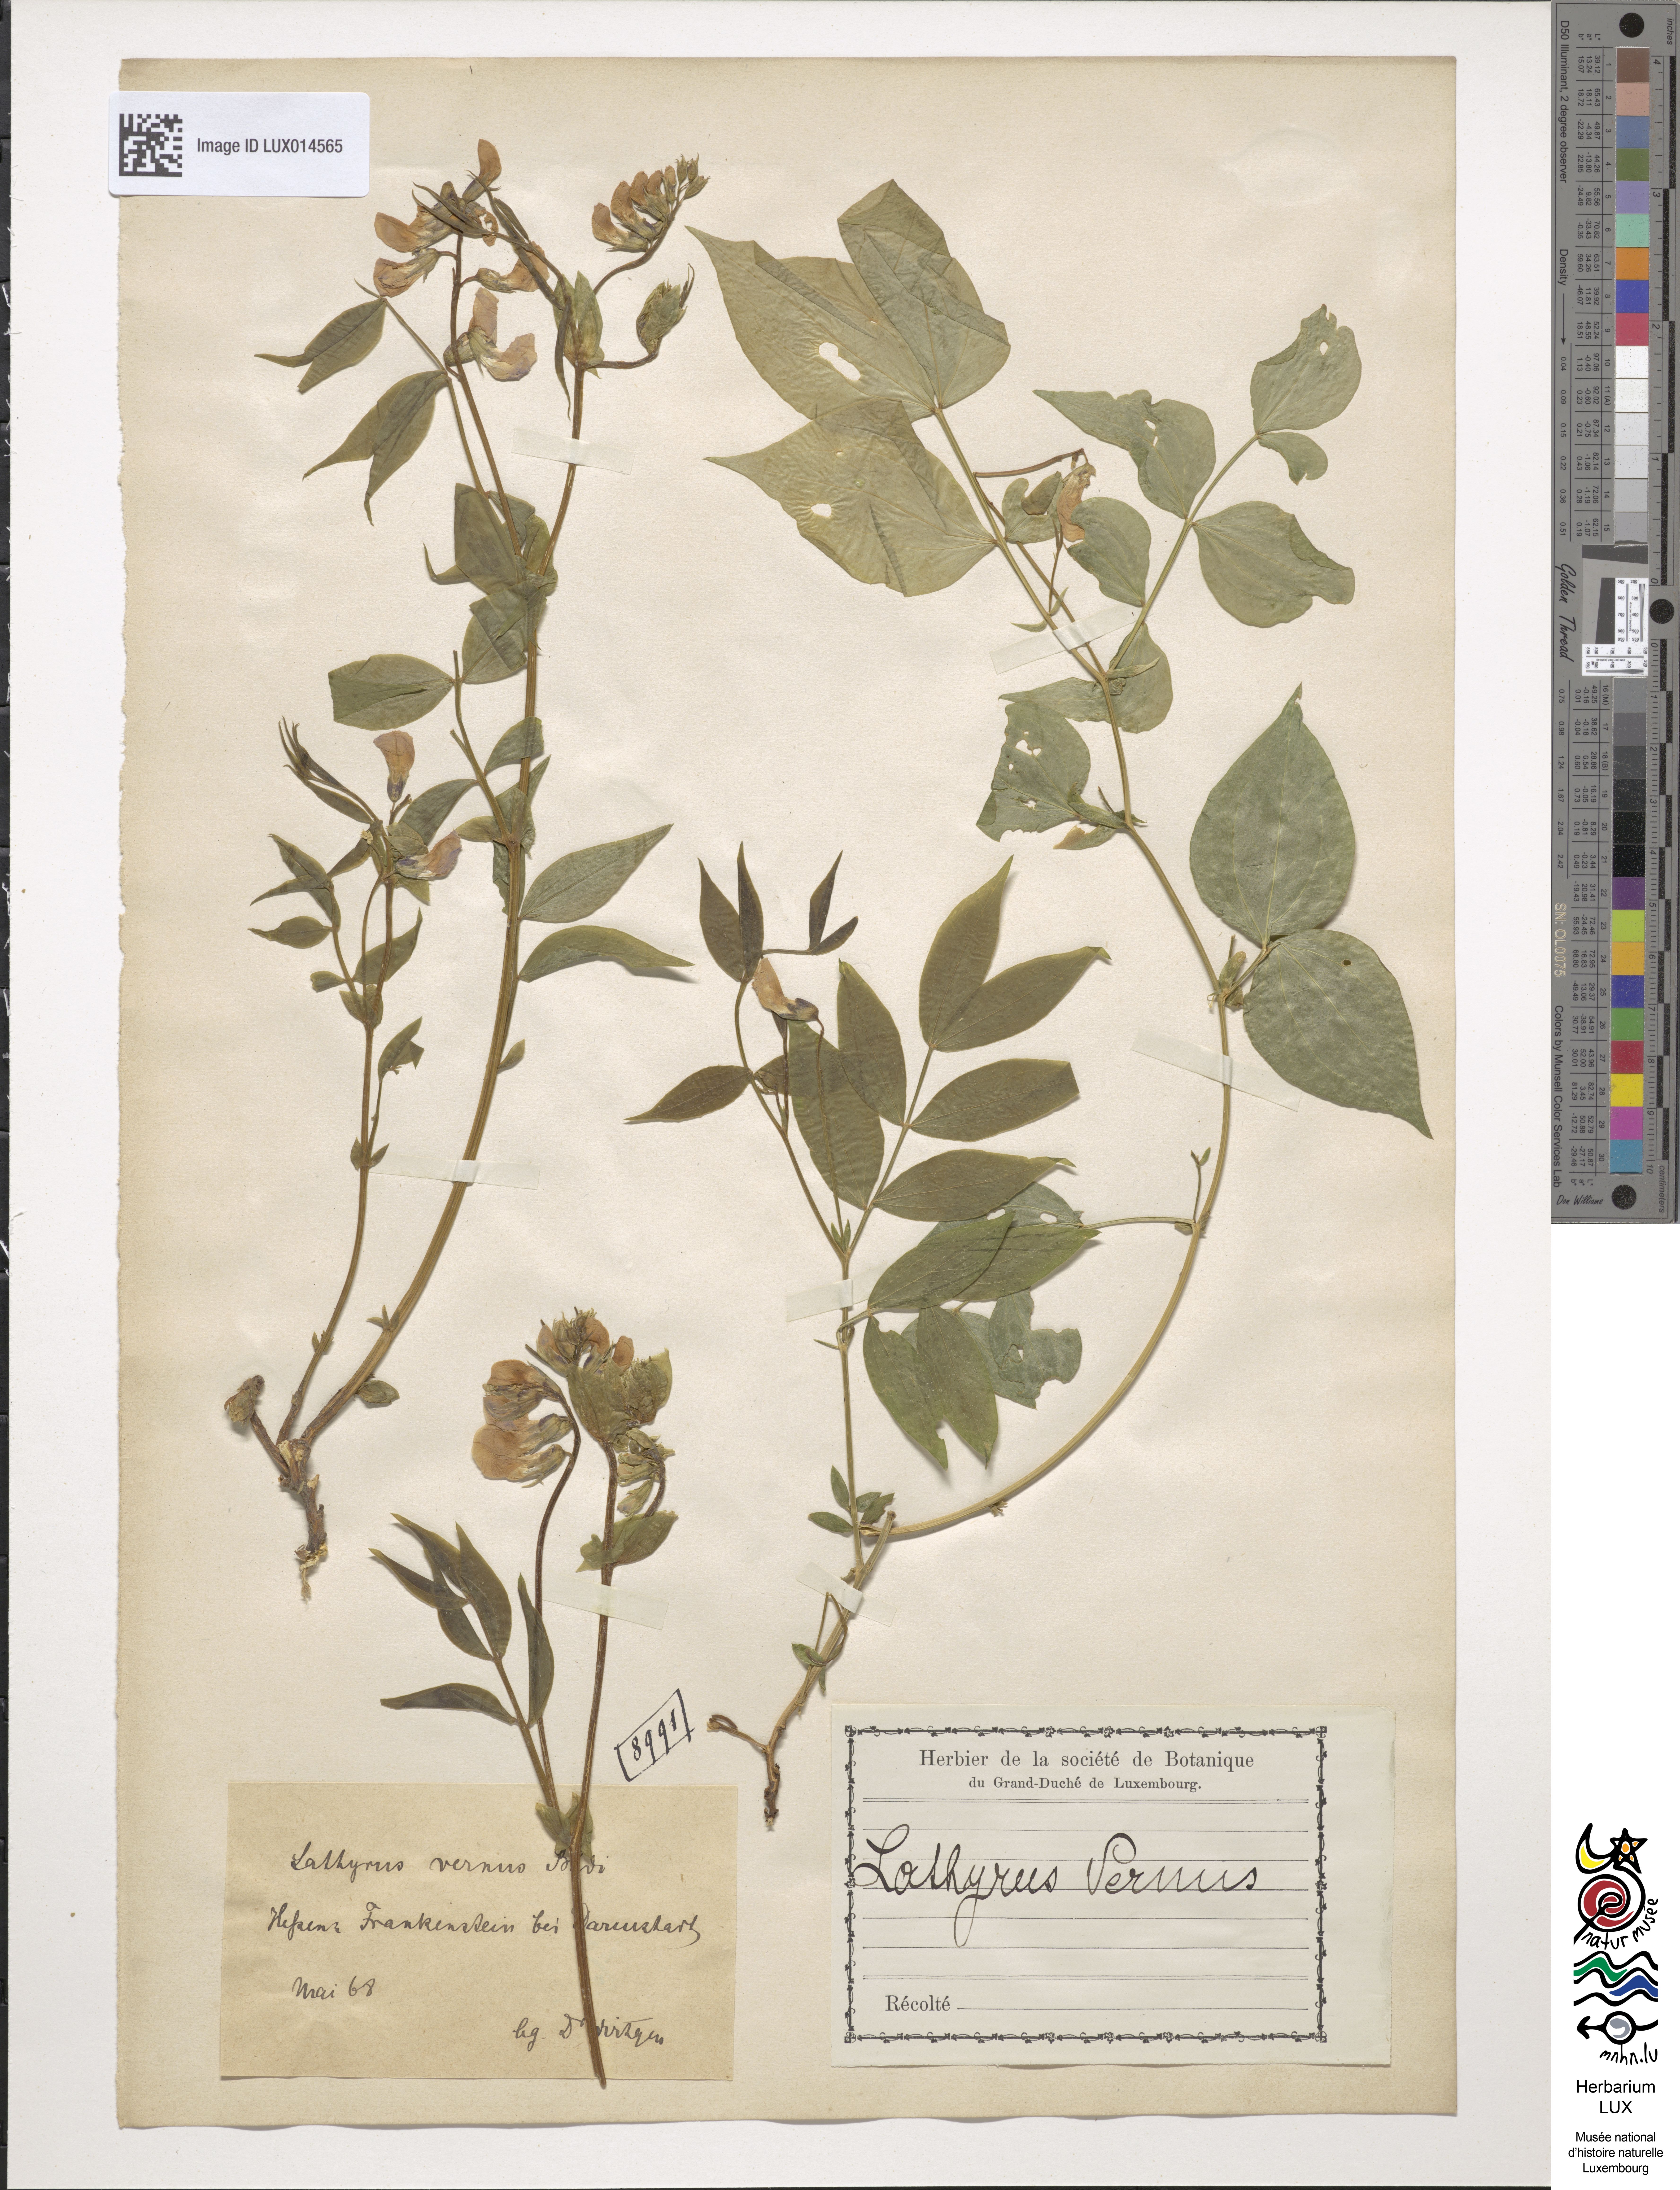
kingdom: Plantae
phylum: Tracheophyta
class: Magnoliopsida
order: Fabales
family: Fabaceae
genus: Lathyrus
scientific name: Lathyrus vernus
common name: Spring pea
